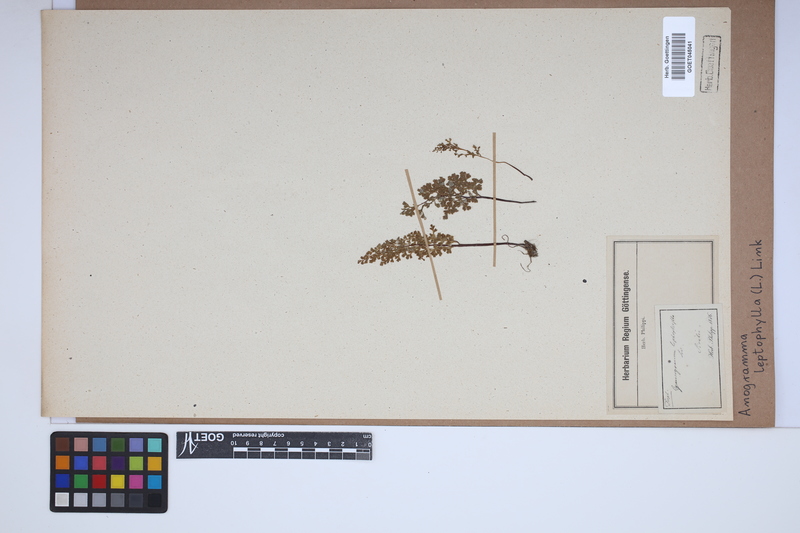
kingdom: Plantae
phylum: Tracheophyta
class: Polypodiopsida
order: Polypodiales
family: Pteridaceae
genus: Anogramma
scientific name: Anogramma leptophylla
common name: Jersey fern
